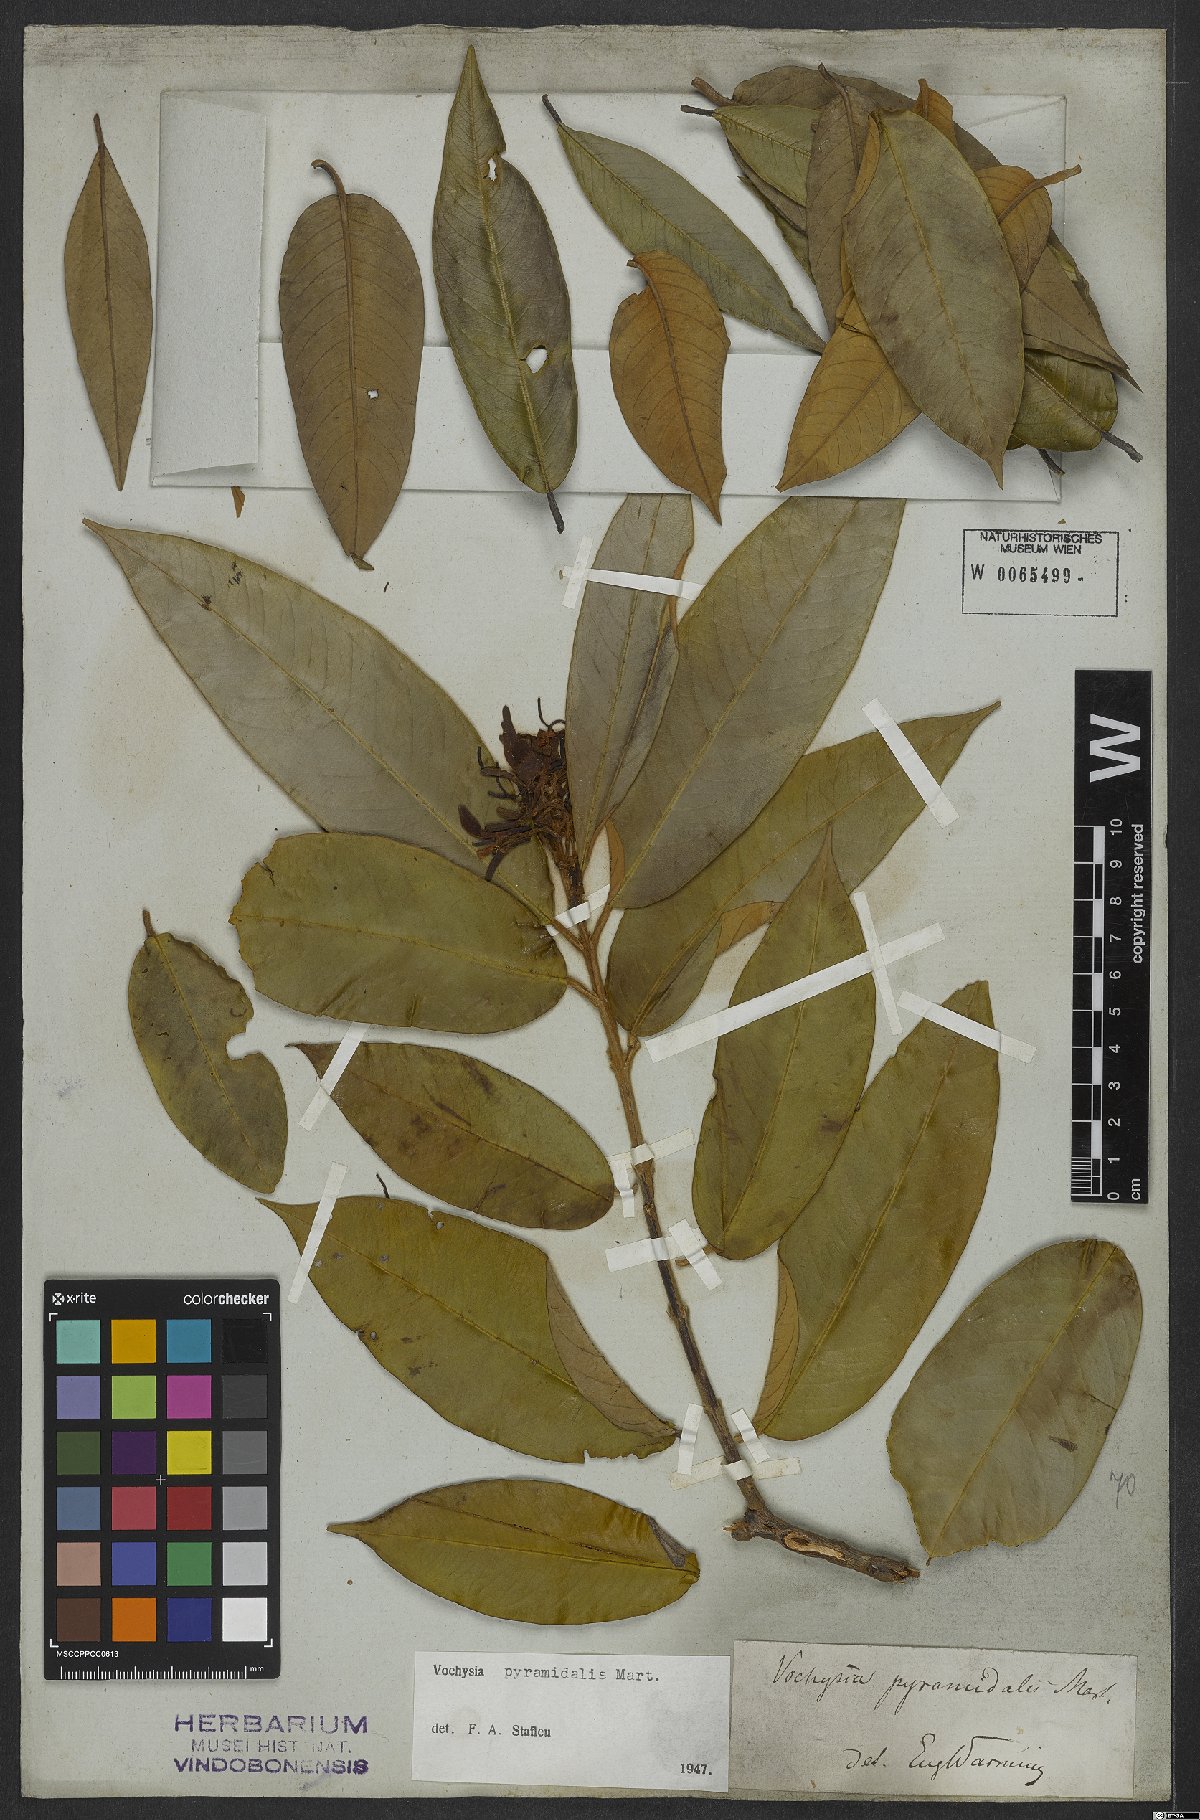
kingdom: Plantae
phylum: Tracheophyta
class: Magnoliopsida
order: Myrtales
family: Vochysiaceae
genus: Vochysia
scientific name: Vochysia pyramidalis
